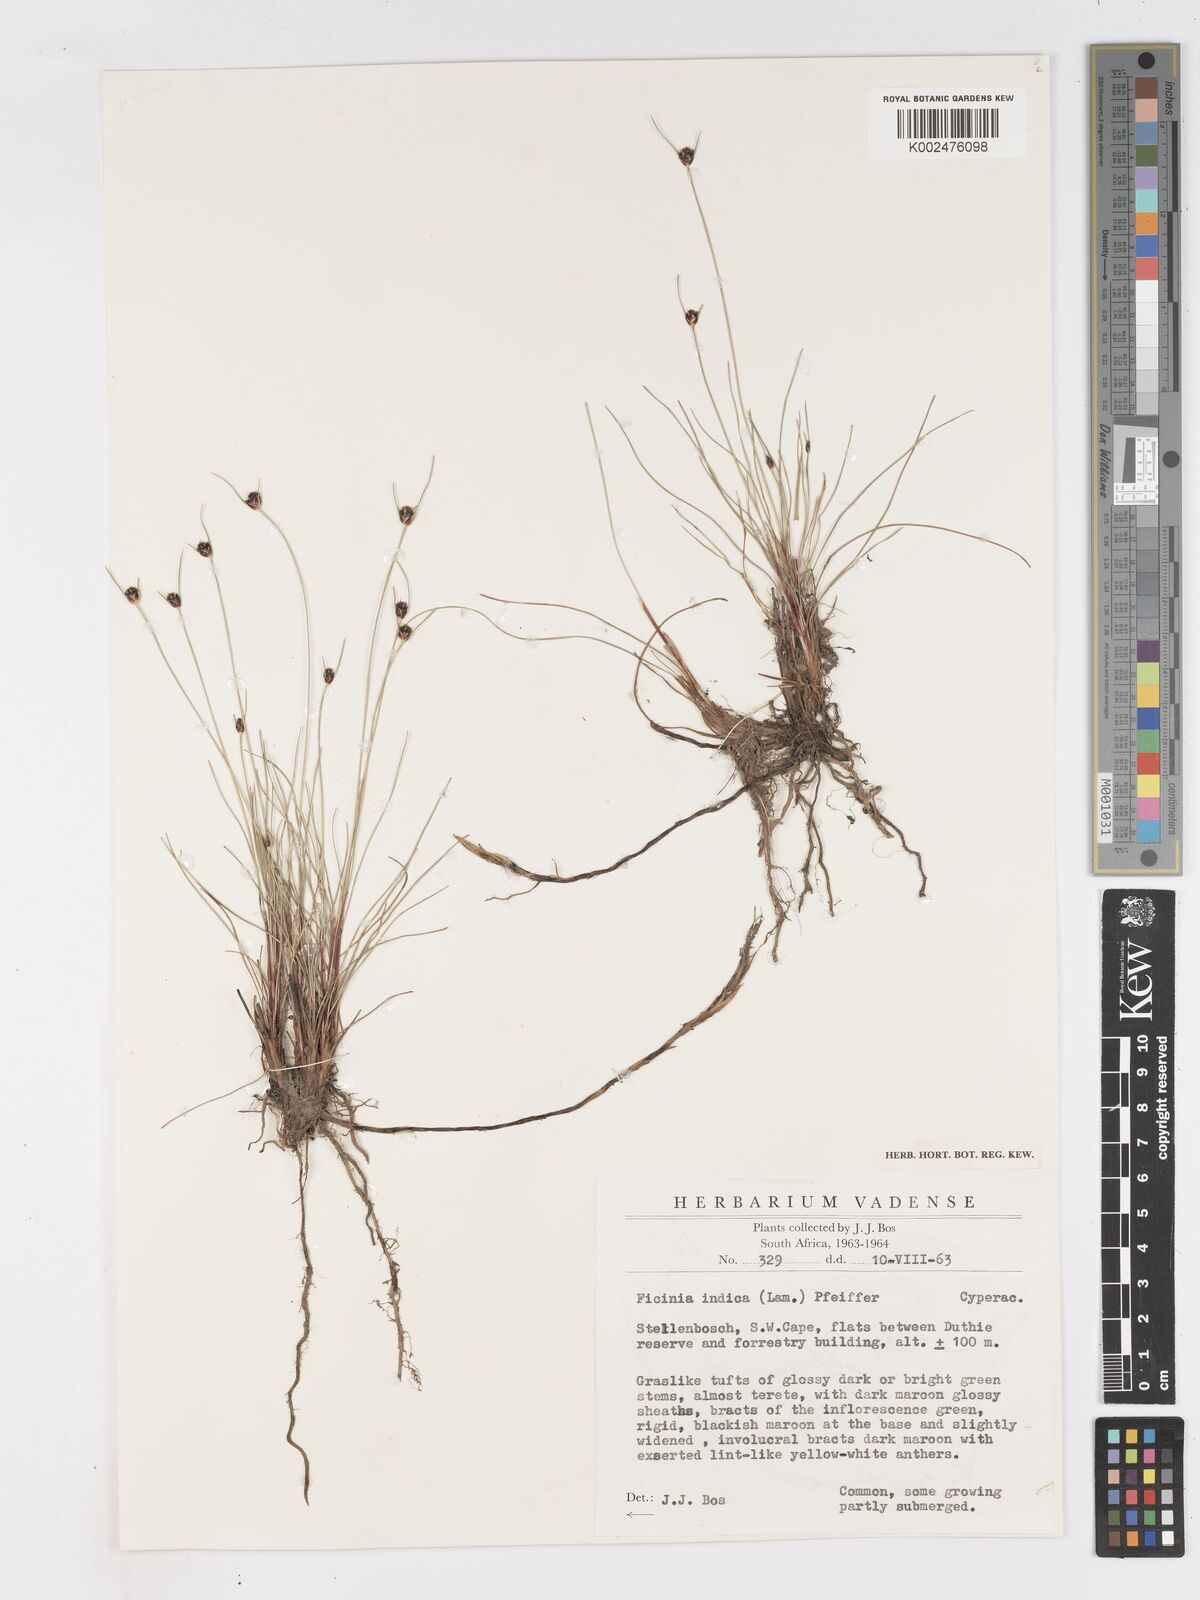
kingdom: Plantae
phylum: Tracheophyta
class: Liliopsida
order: Poales
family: Cyperaceae
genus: Ficinia
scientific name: Ficinia indica
